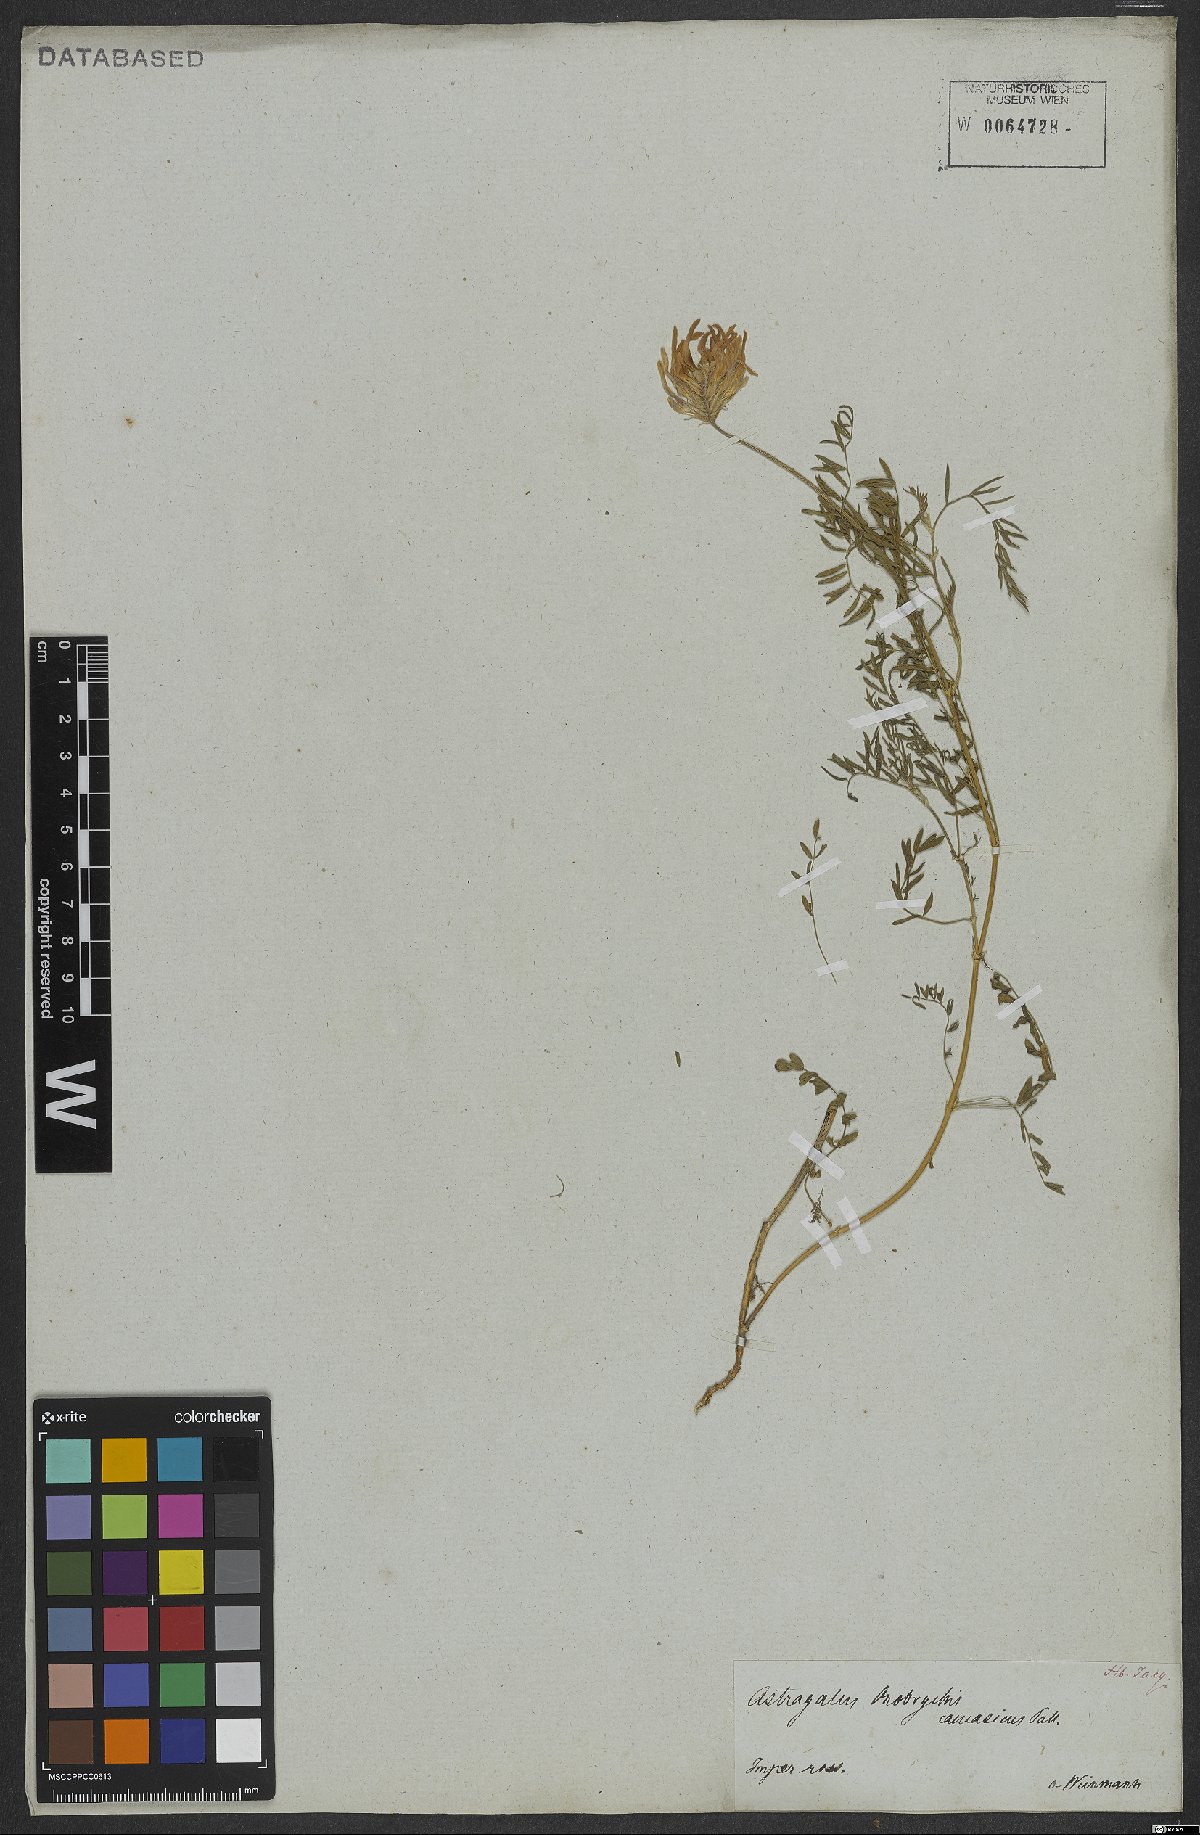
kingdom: Plantae
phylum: Tracheophyta
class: Magnoliopsida
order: Fabales
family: Fabaceae
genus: Astragalus
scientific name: Astragalus onobrychis
